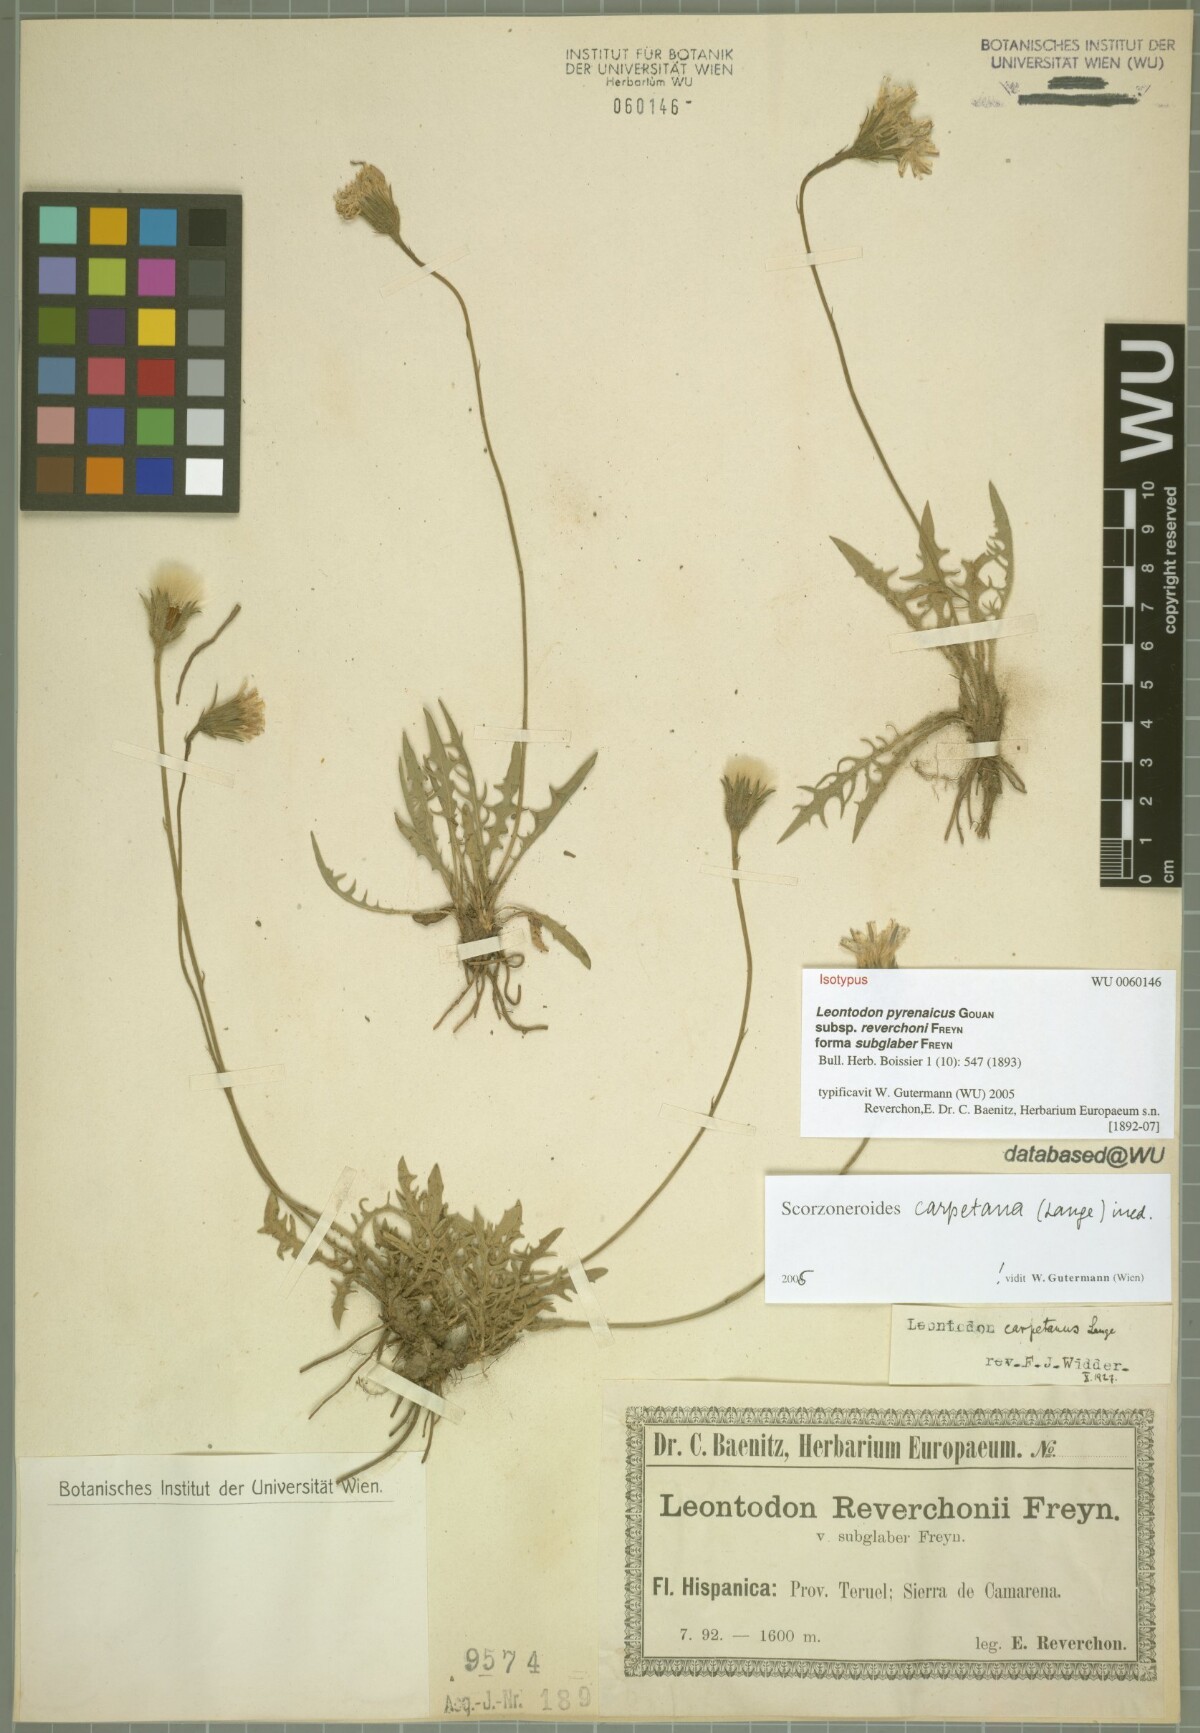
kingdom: Plantae
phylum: Tracheophyta
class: Magnoliopsida
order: Asterales
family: Asteraceae
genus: Scorzoneroides
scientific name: Scorzoneroides pyrenaica
